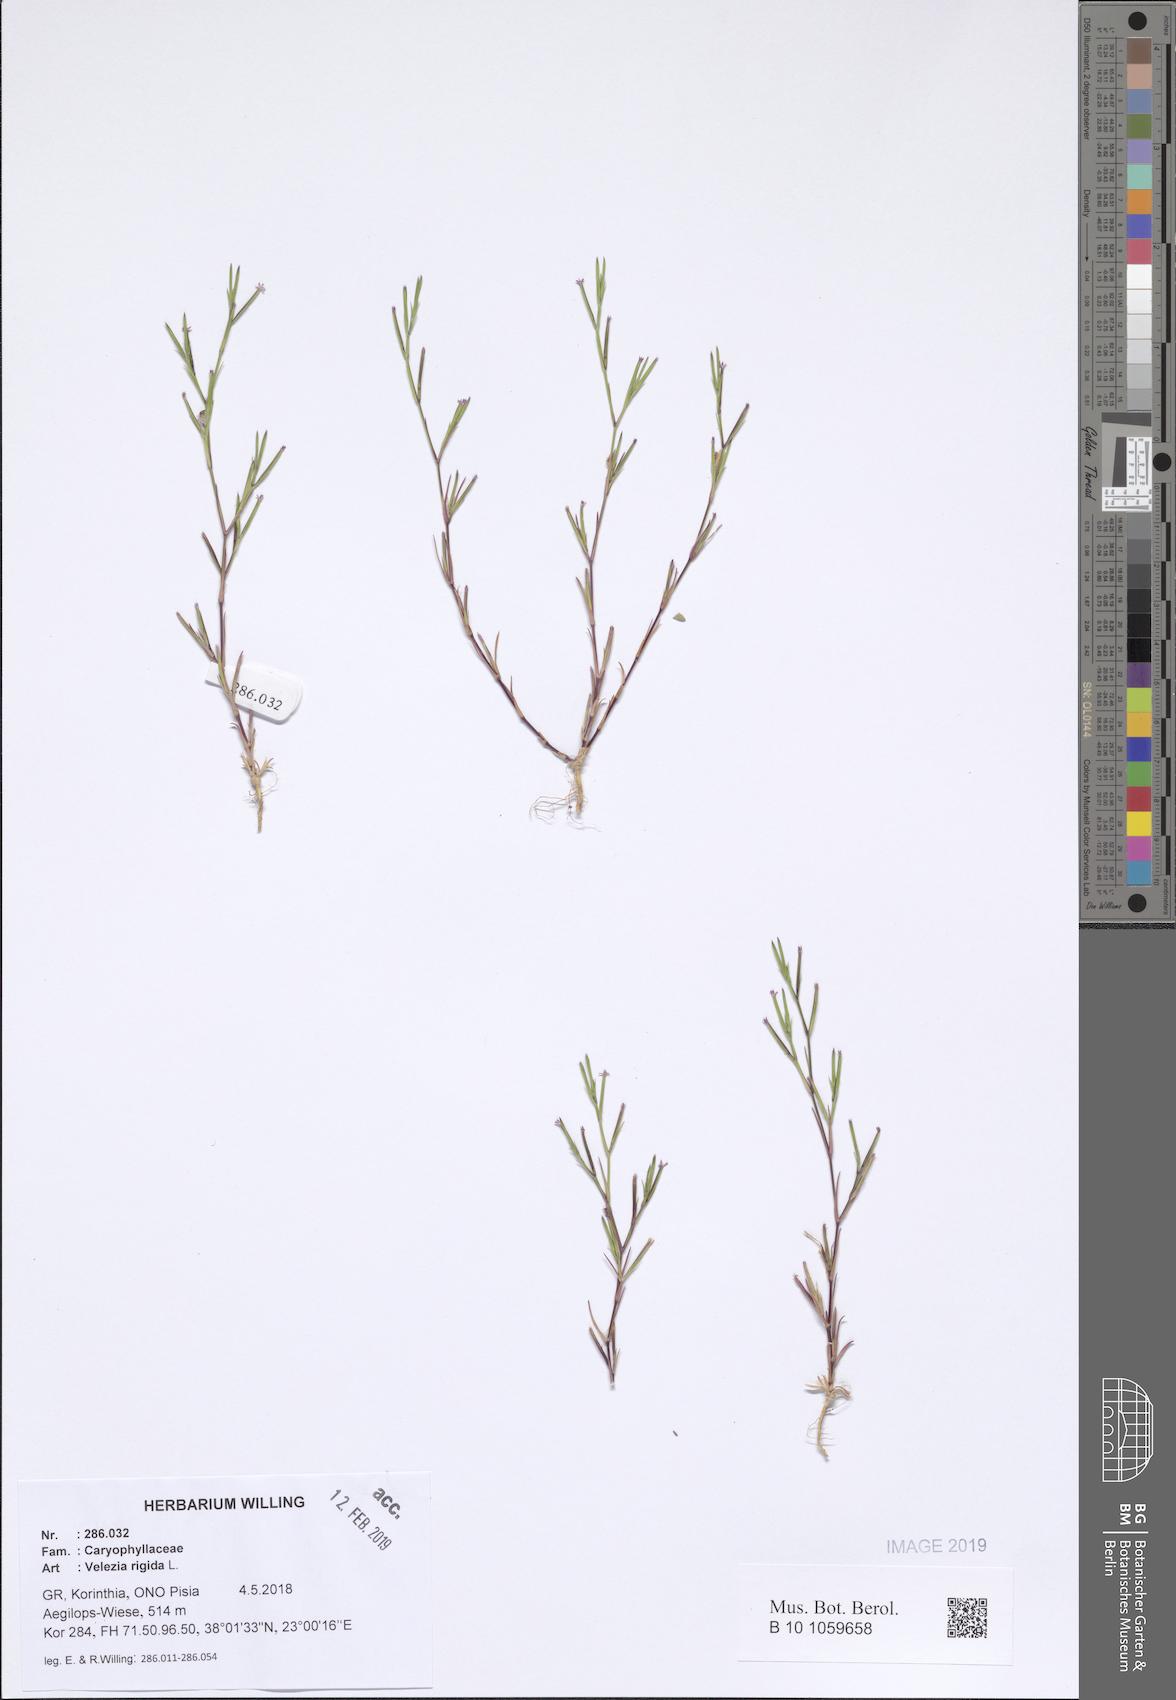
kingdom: Plantae
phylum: Tracheophyta
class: Magnoliopsida
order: Caryophyllales
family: Caryophyllaceae
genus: Dianthus
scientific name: Dianthus nudiflorus
